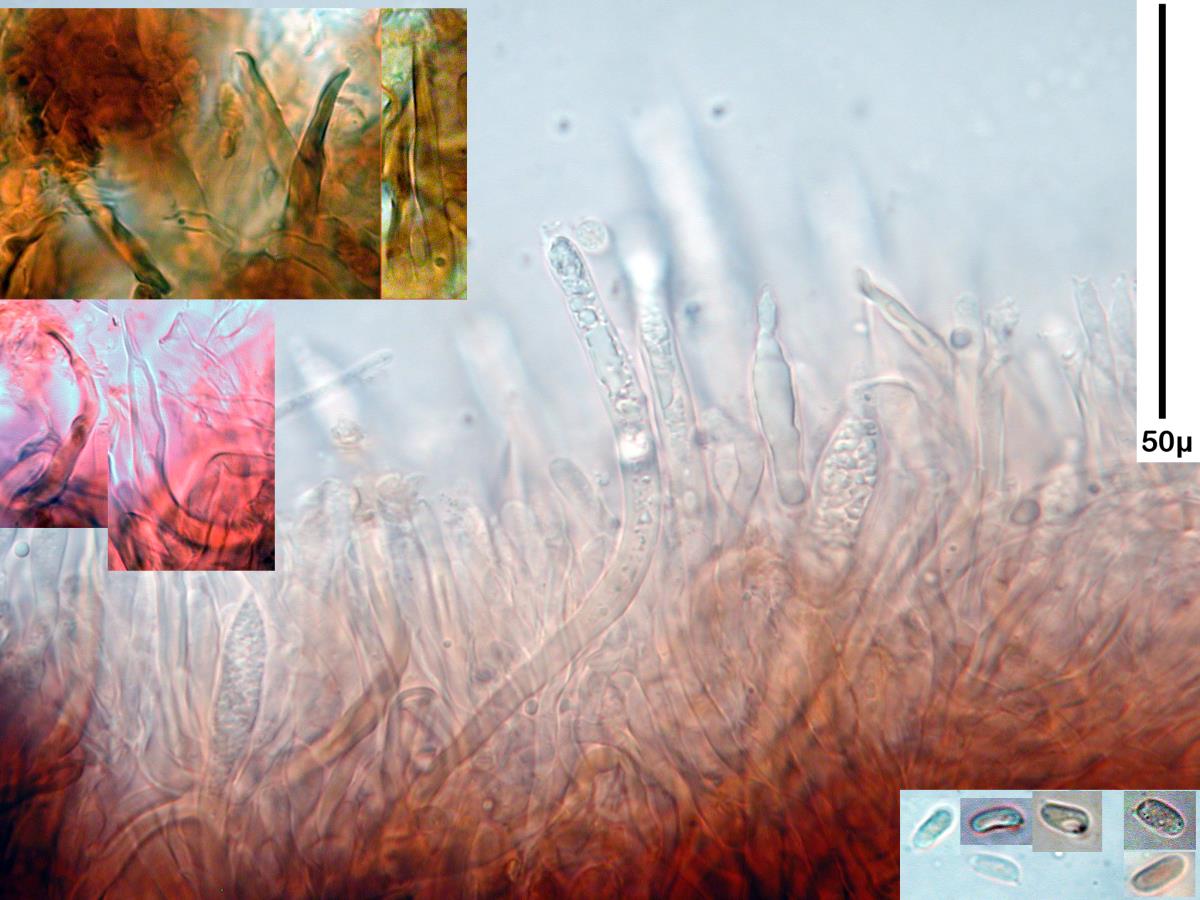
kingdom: Fungi
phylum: Basidiomycota
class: Agaricomycetes
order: Russulales
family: Stereaceae
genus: Xylobolus
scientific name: Xylobolus illudens
